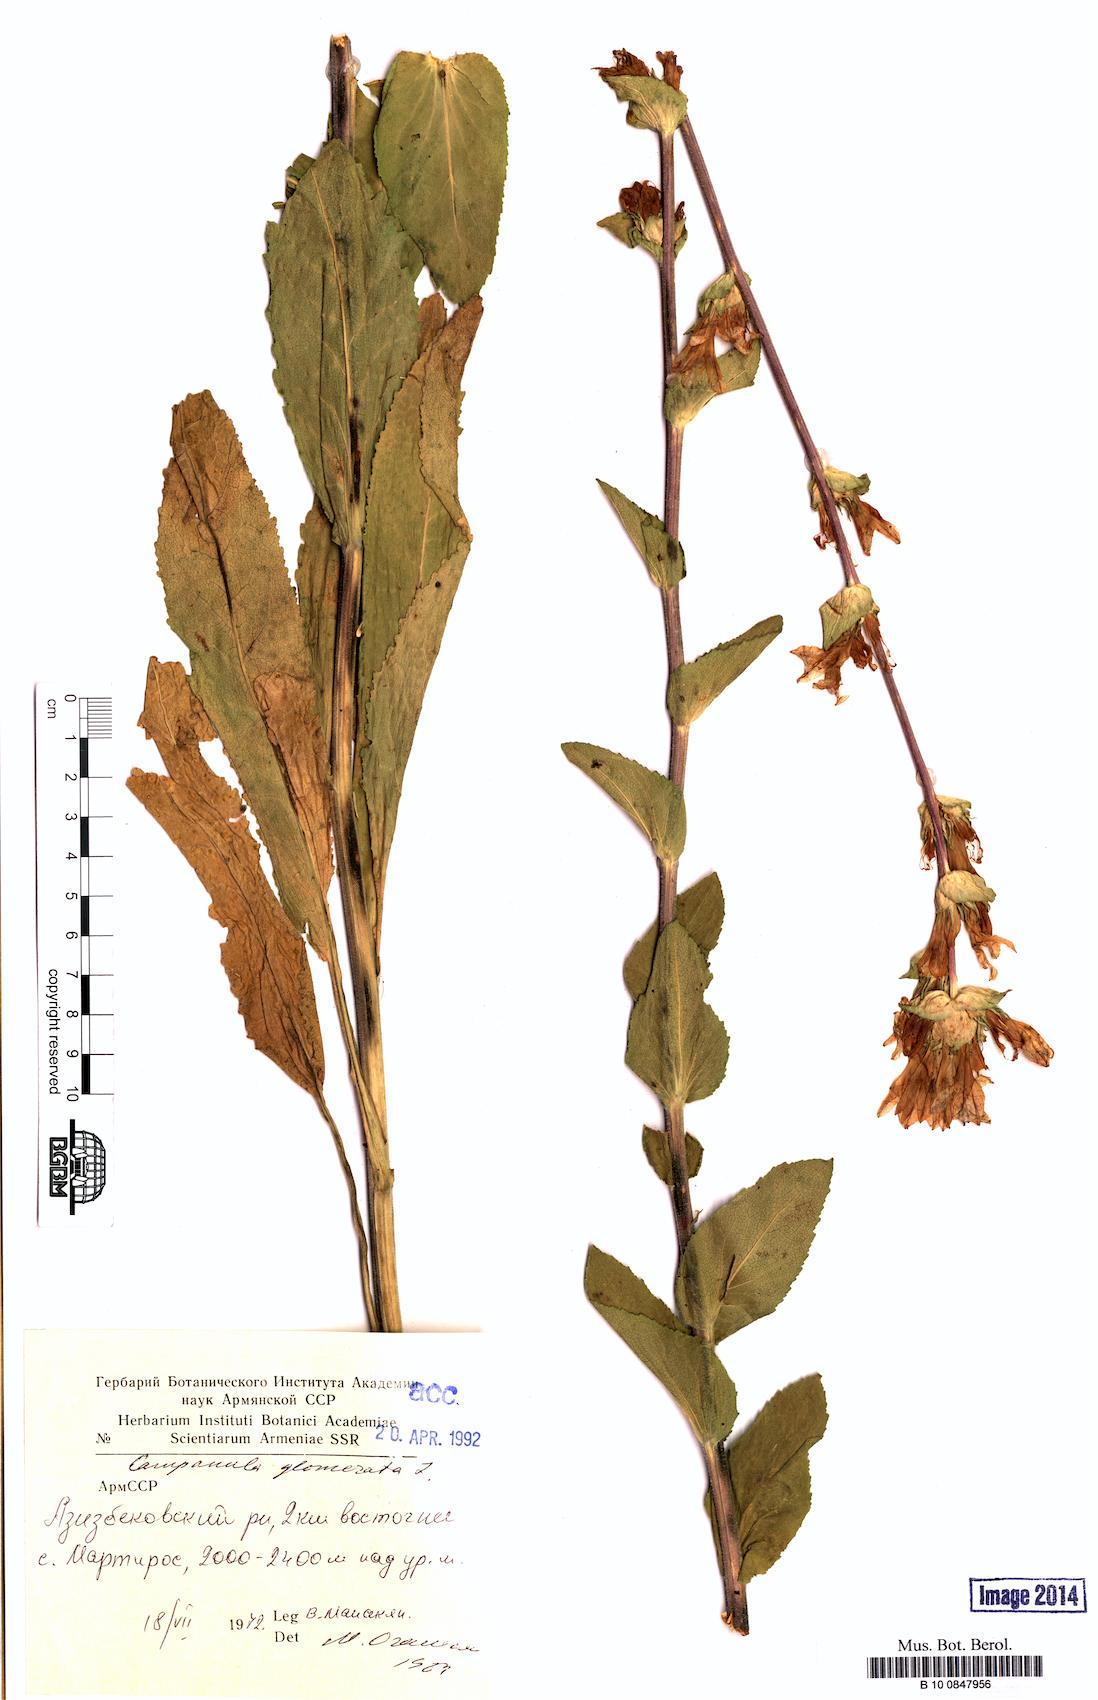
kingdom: Plantae
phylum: Tracheophyta
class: Magnoliopsida
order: Asterales
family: Campanulaceae
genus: Campanula
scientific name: Campanula glomerata
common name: Clustered bellflower
